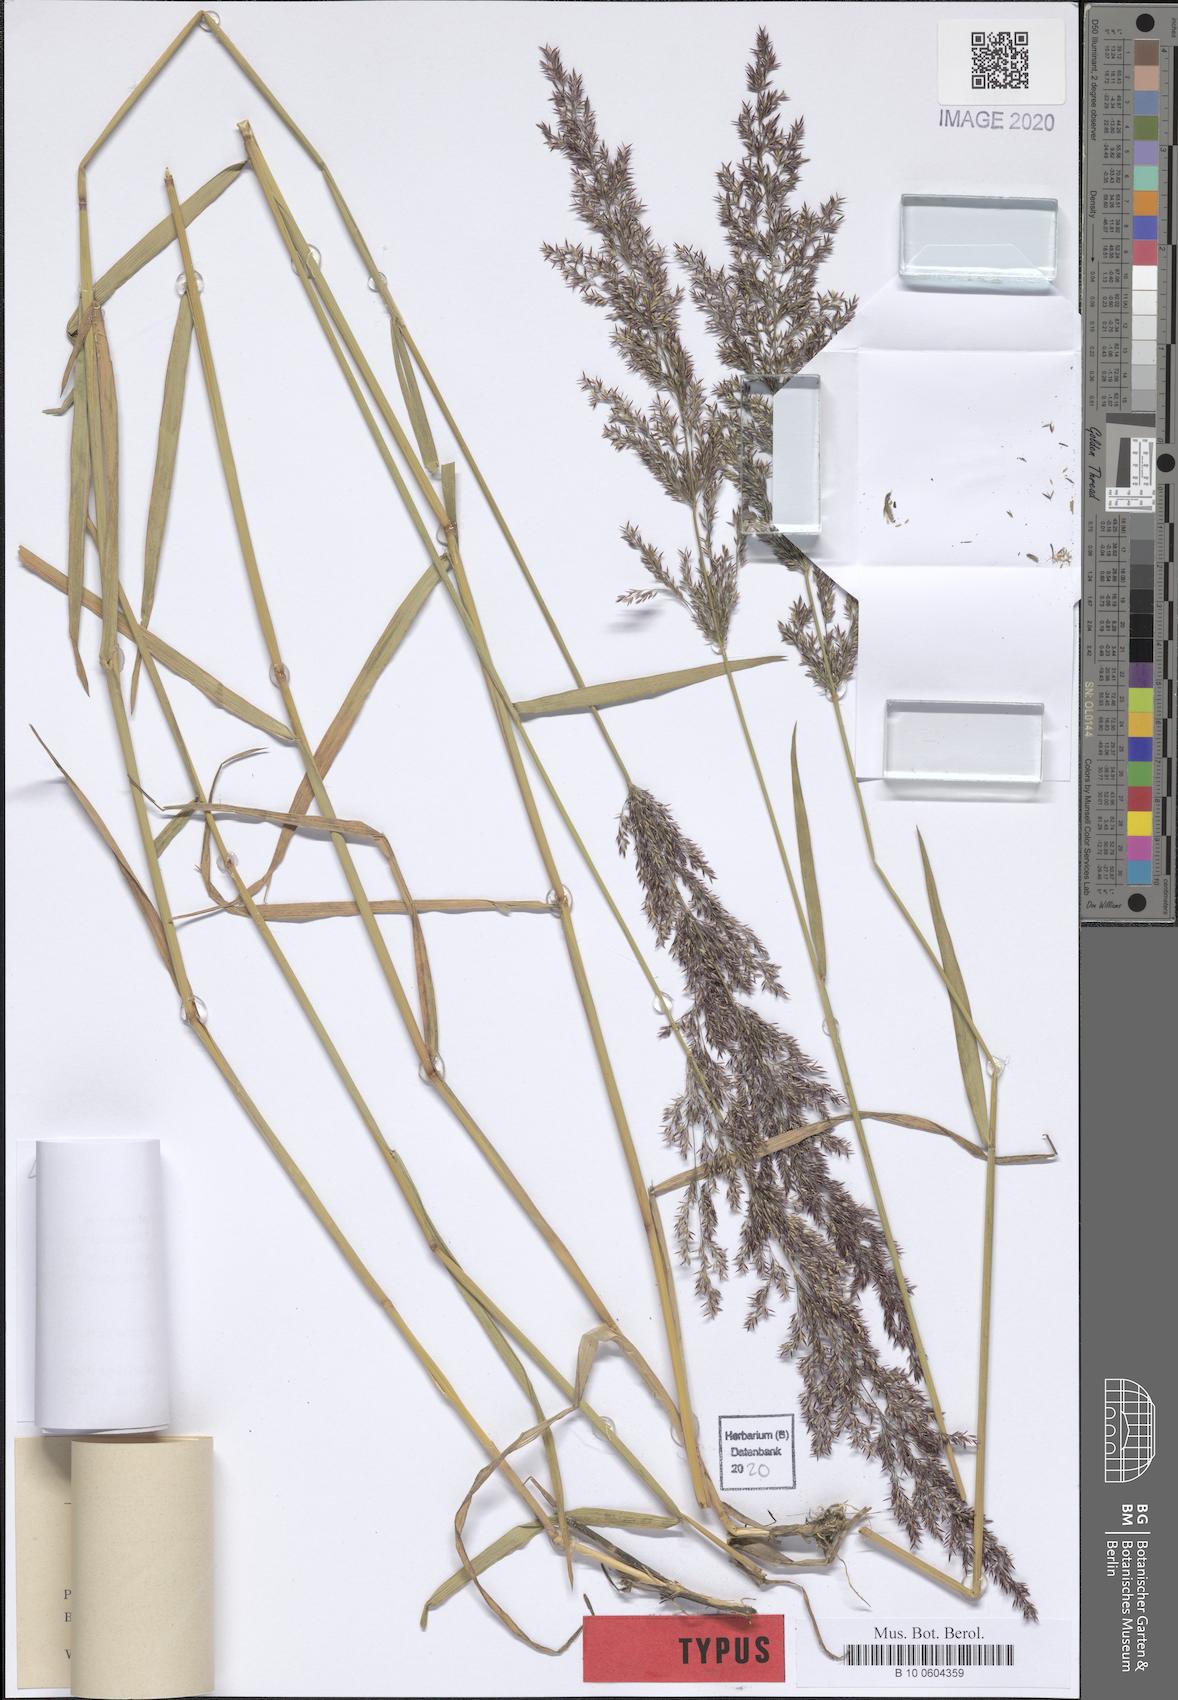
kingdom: Plantae
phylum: Tracheophyta
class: Liliopsida
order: Poales
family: Poaceae
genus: Agrostis
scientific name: Agrostis stolonifera
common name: Creeping bentgrass
